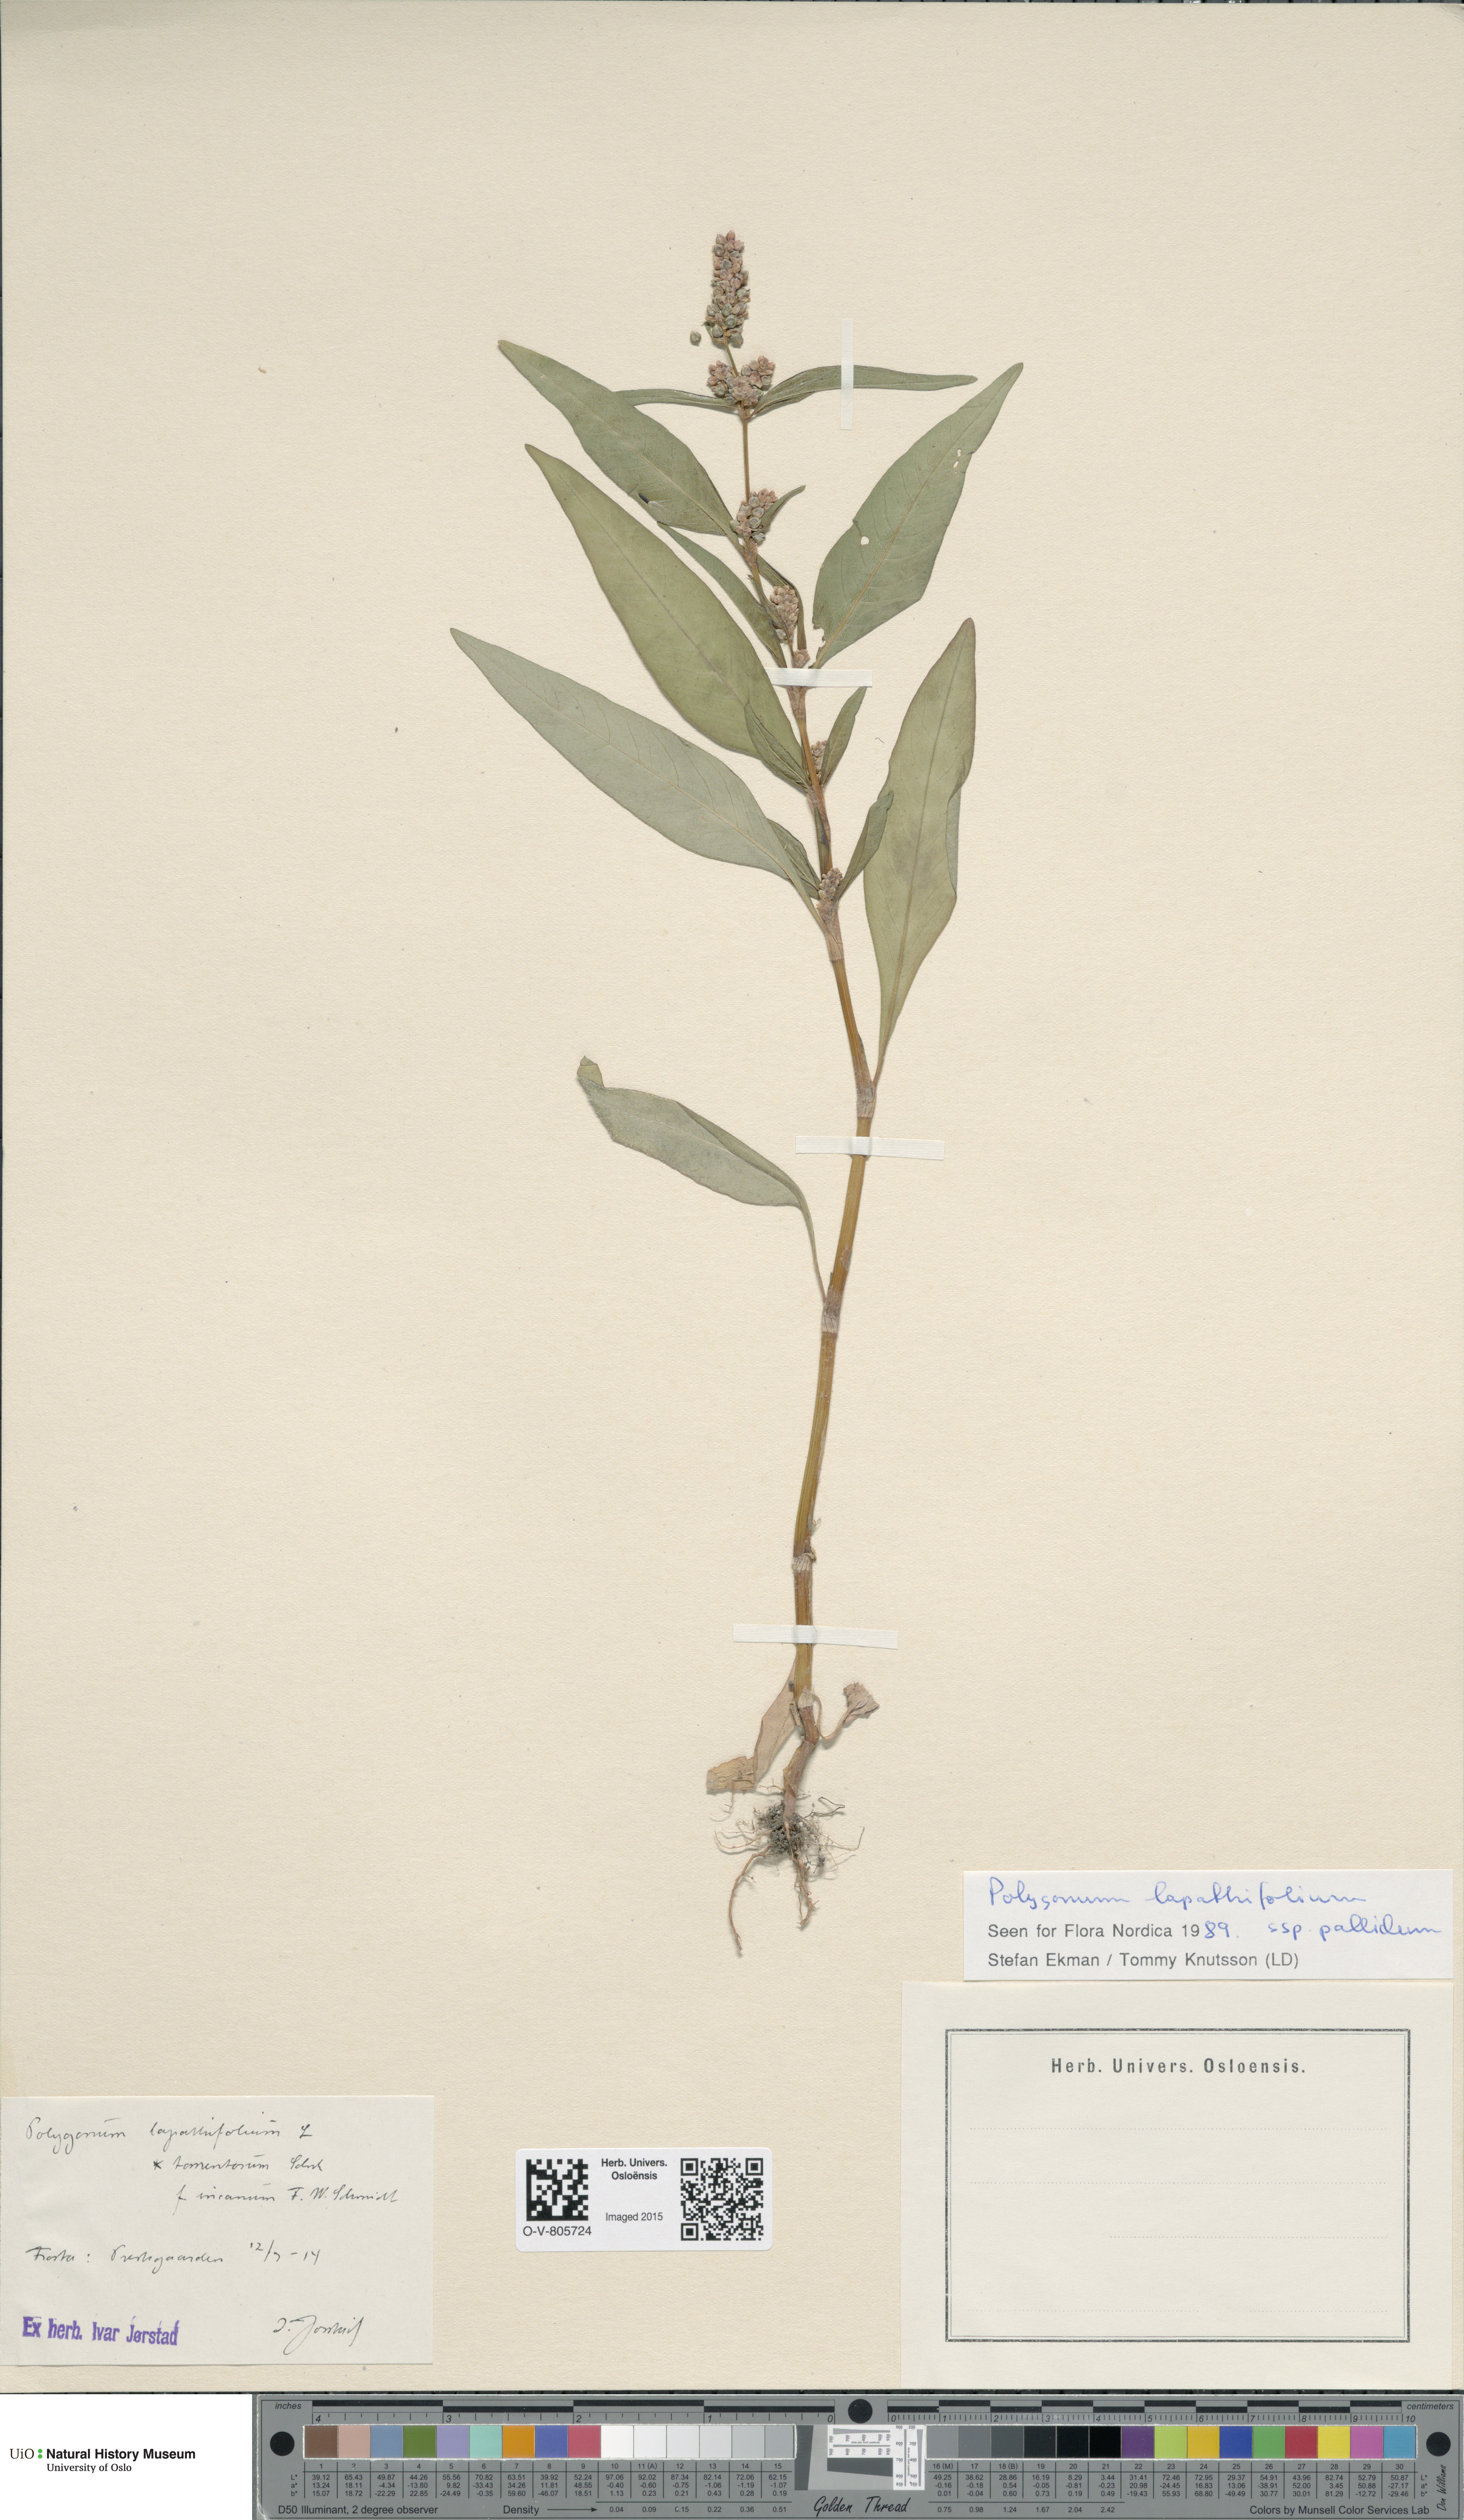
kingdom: Plantae
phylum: Tracheophyta
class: Magnoliopsida
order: Caryophyllales
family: Polygonaceae
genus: Persicaria
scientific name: Persicaria lapathifolia
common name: Curlytop knotweed
